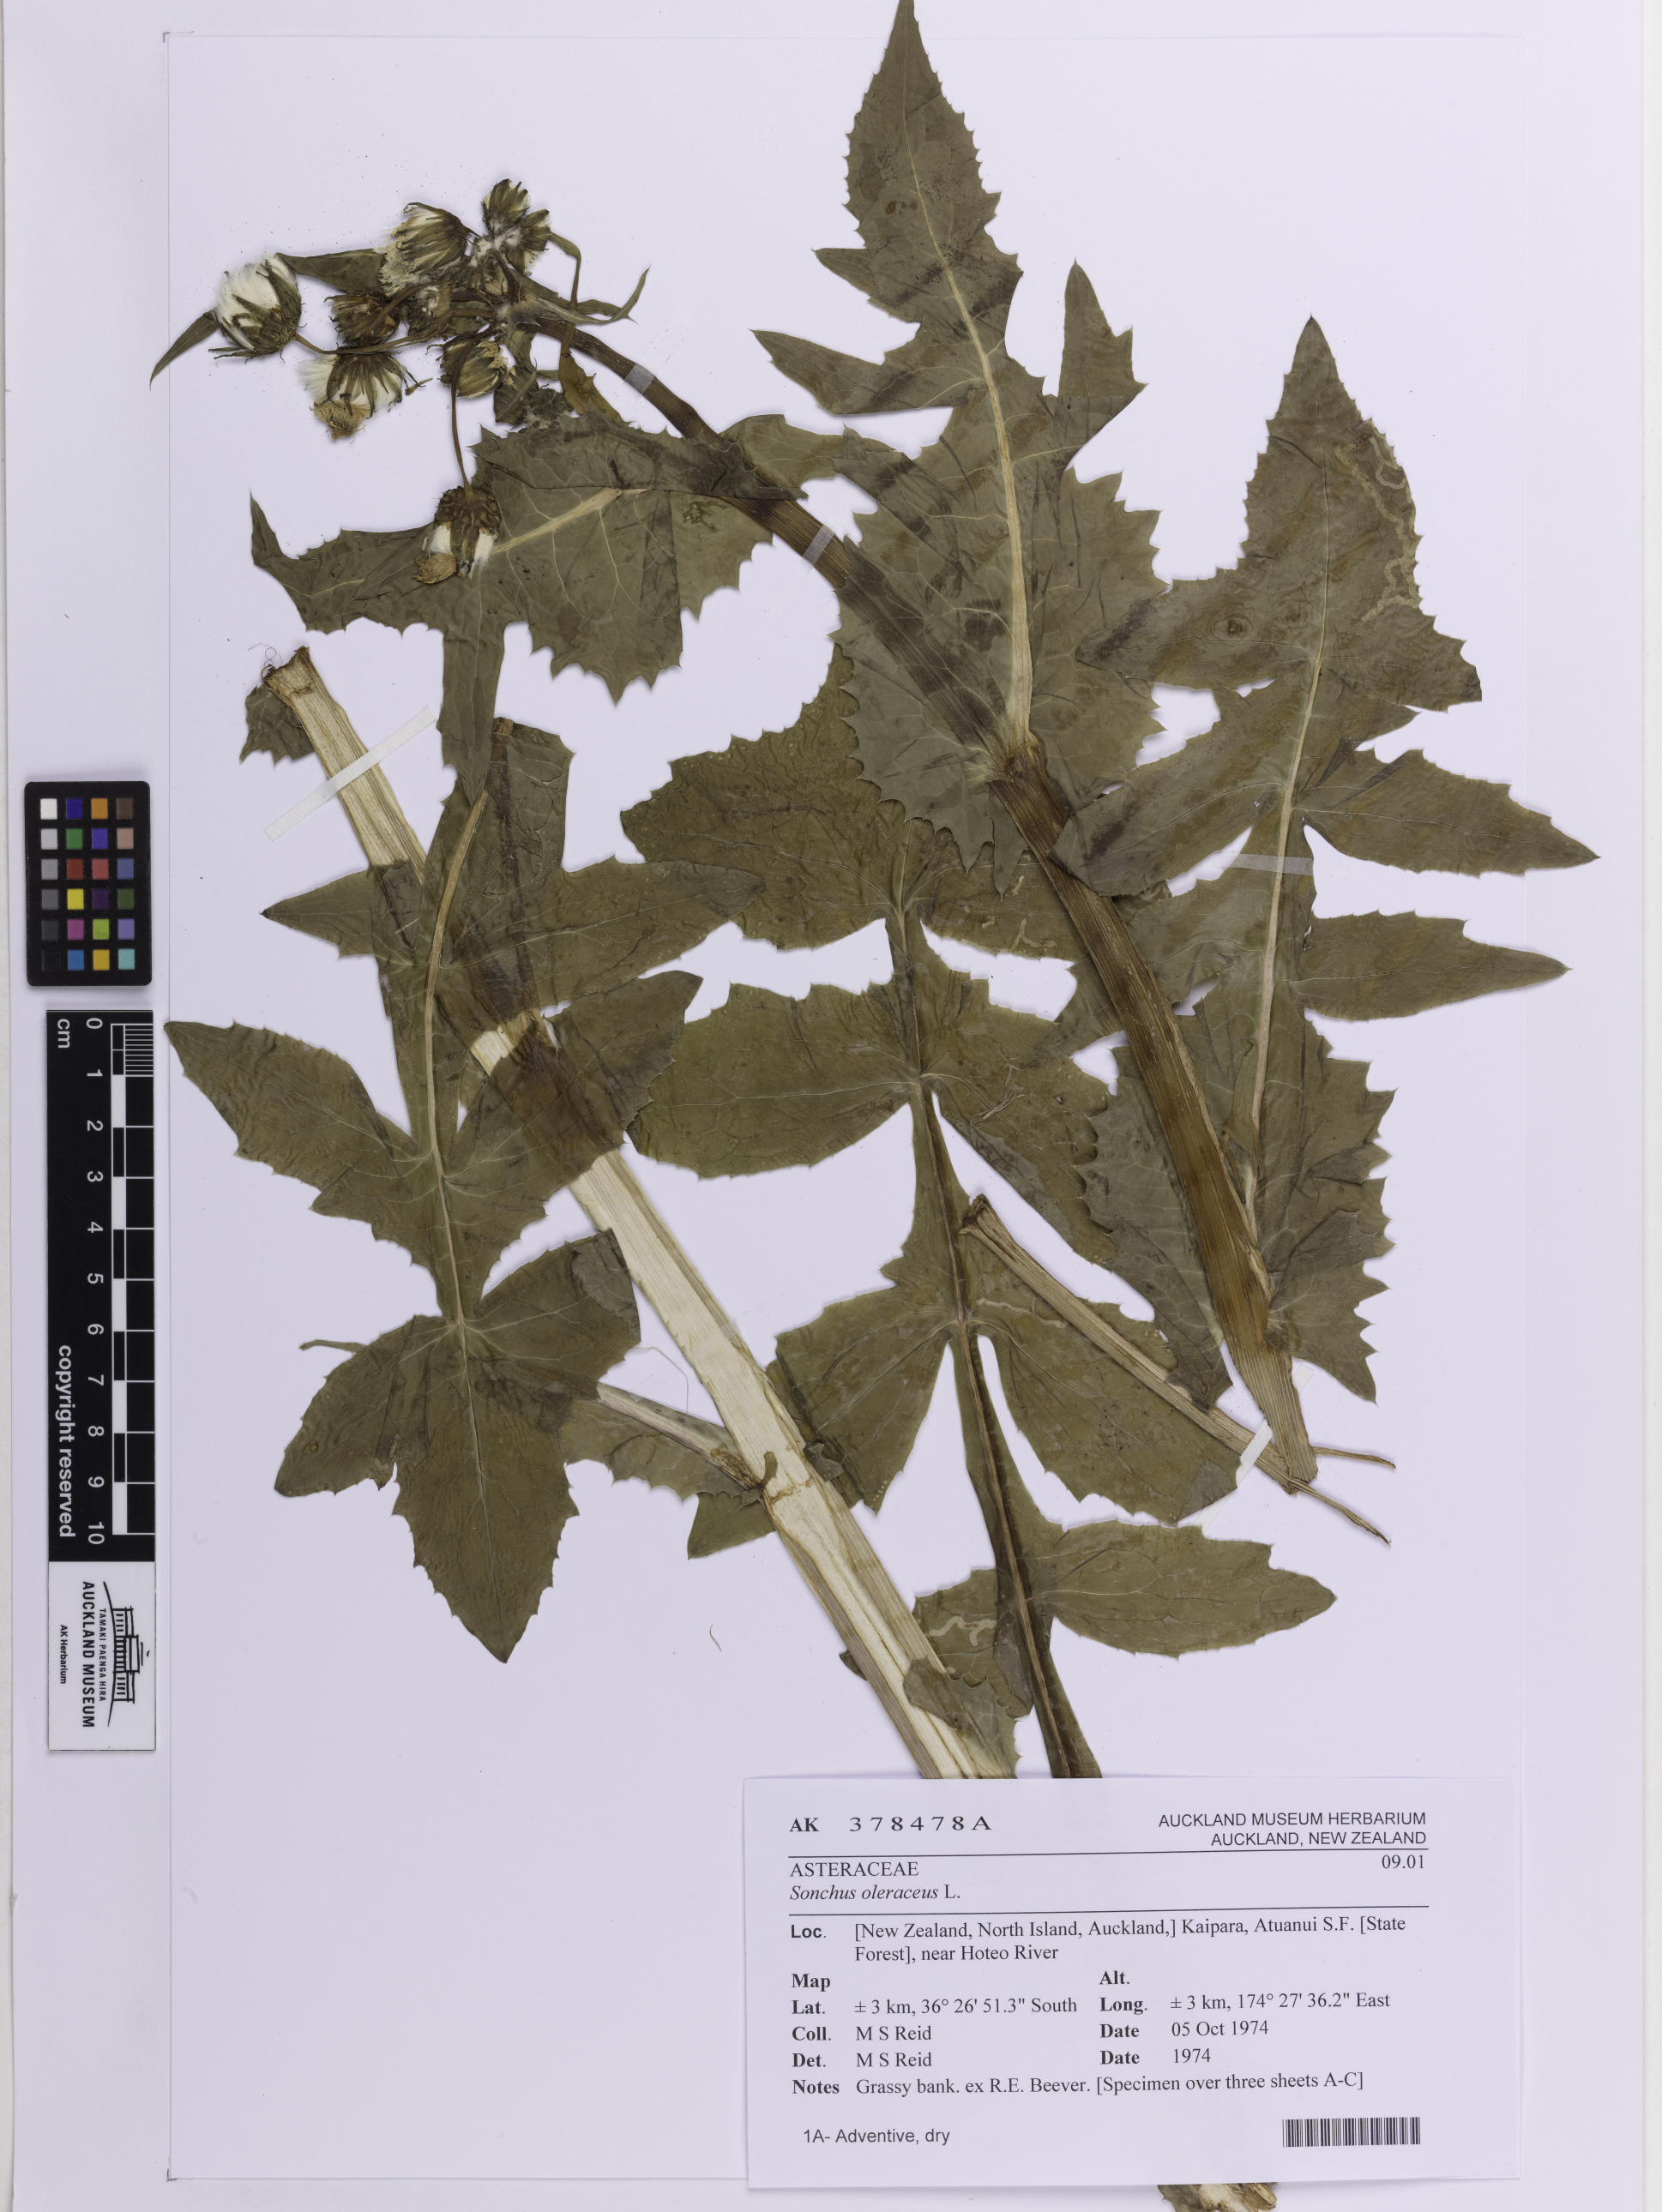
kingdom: Plantae
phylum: Tracheophyta
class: Magnoliopsida
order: Asterales
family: Asteraceae
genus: Sonchus
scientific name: Sonchus oleraceus
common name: Common sowthistle
